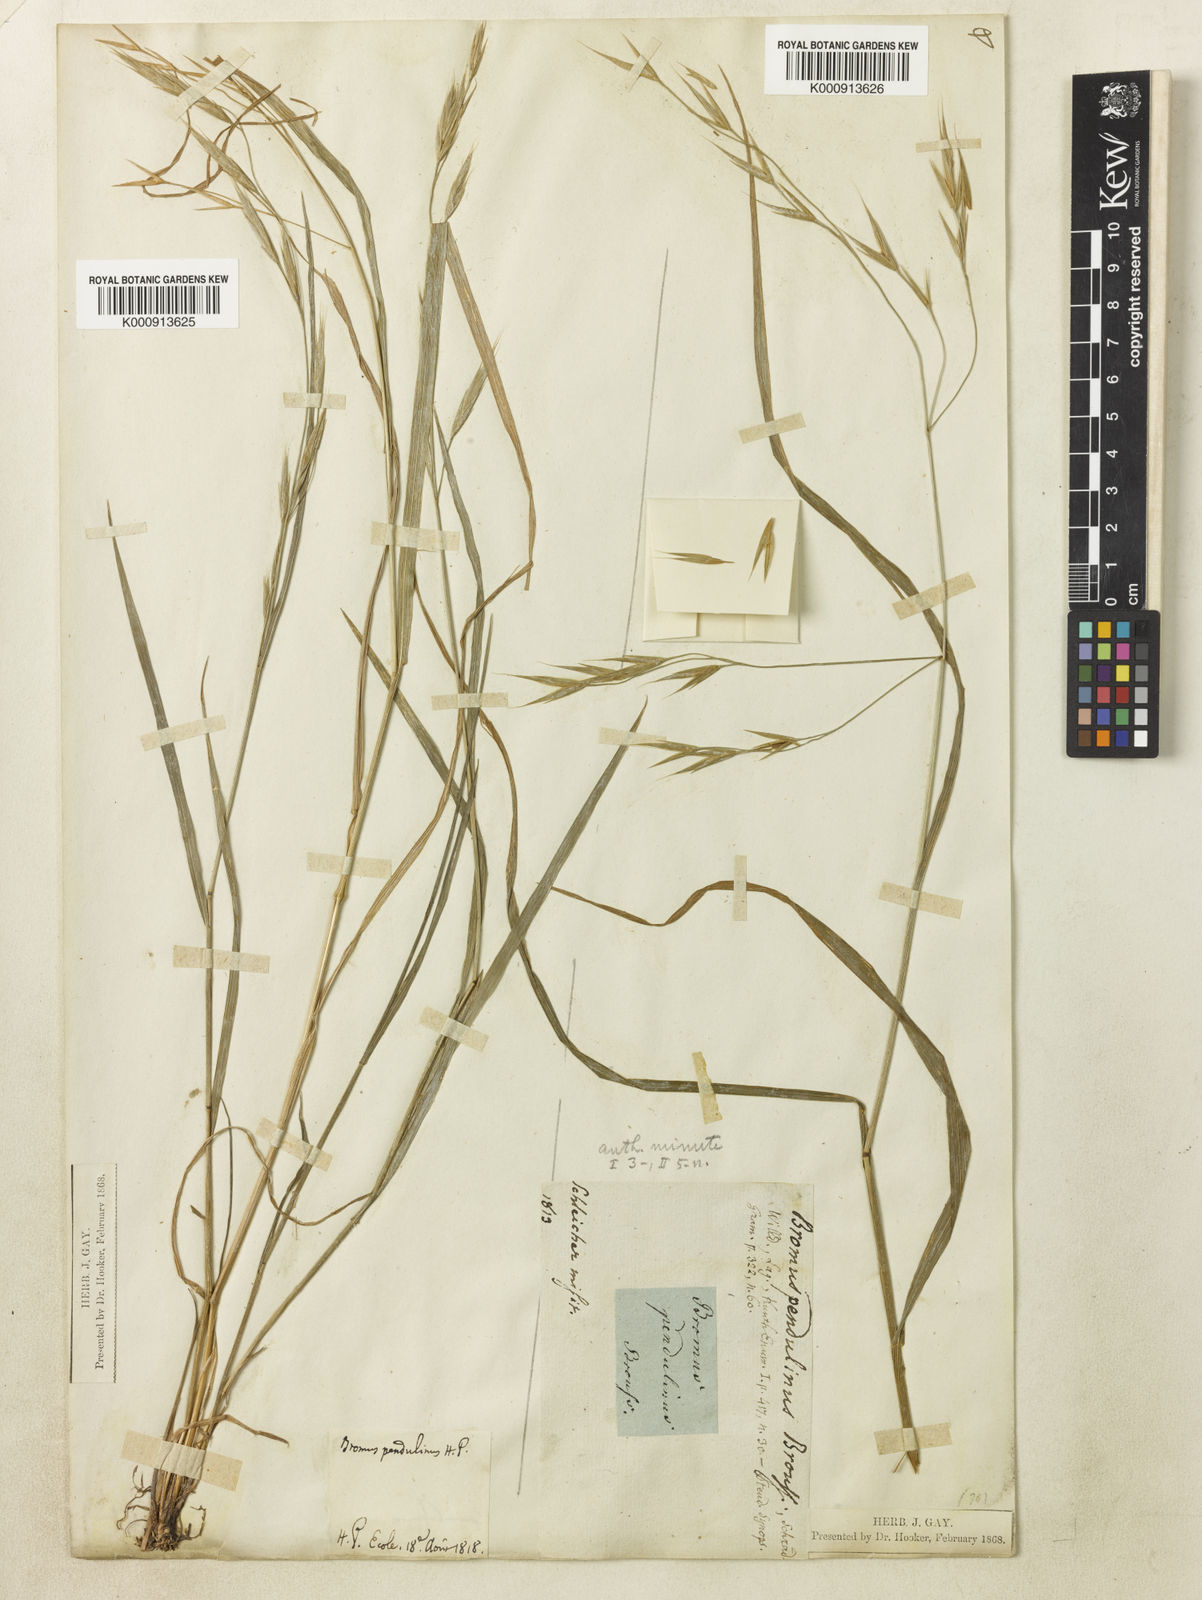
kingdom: Plantae
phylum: Tracheophyta
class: Liliopsida
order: Poales
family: Poaceae
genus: Bromus
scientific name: Bromus carinatus
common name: Mountain brome
